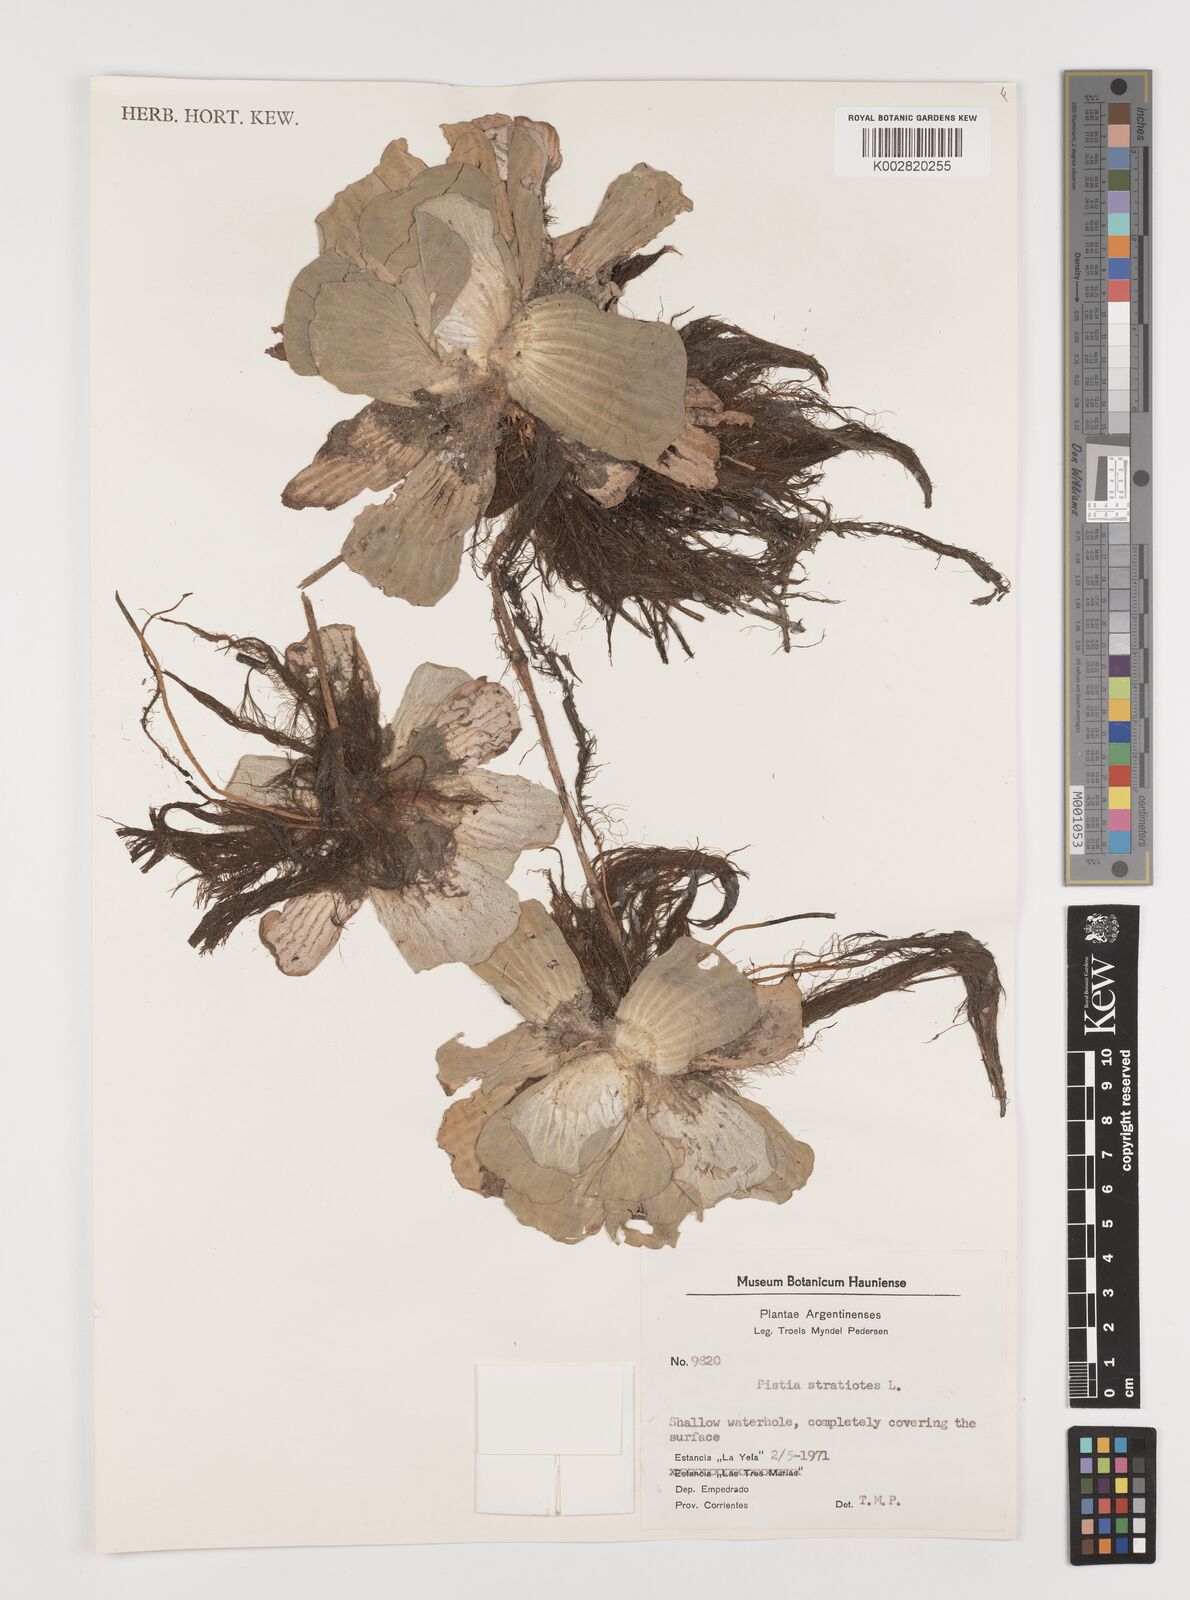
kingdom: Plantae
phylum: Tracheophyta
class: Liliopsida
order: Alismatales
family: Araceae
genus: Pistia
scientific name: Pistia stratiotes
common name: Water lettuce
